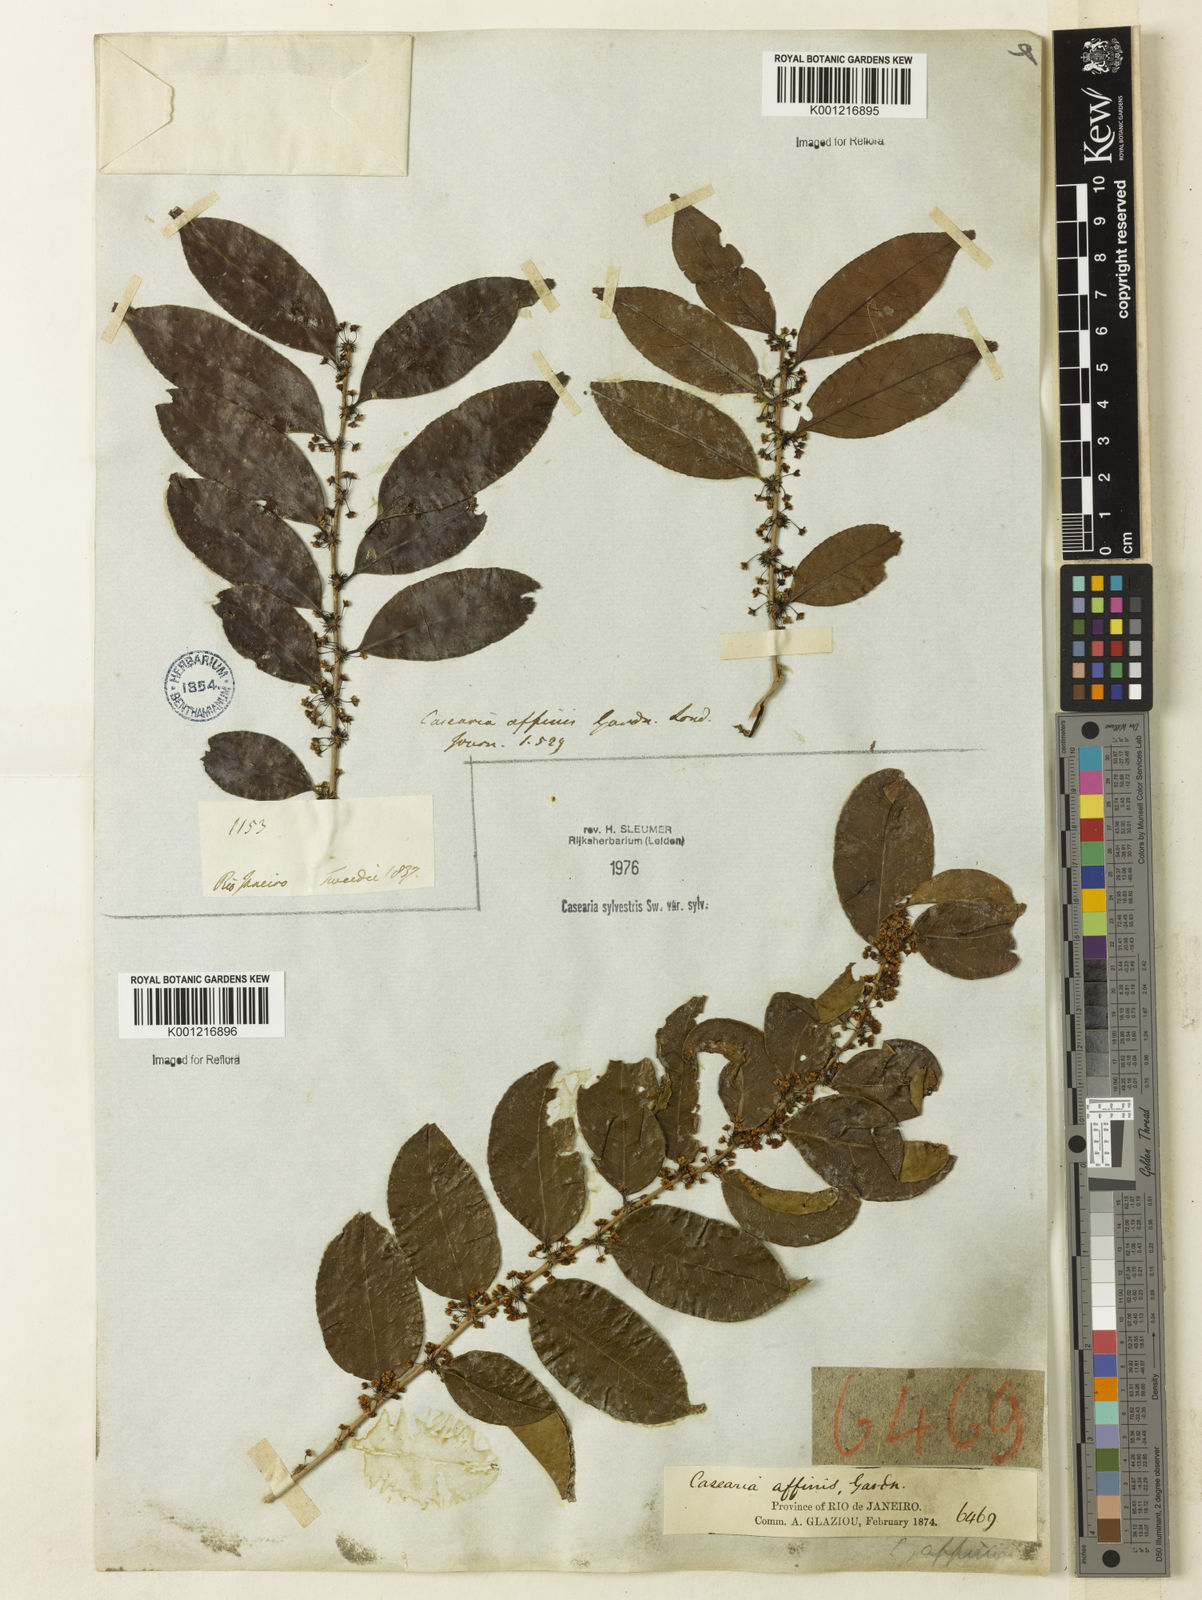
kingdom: Plantae
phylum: Tracheophyta
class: Magnoliopsida
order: Malpighiales
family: Salicaceae
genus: Casearia
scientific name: Casearia sylvestris
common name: Wild sage
